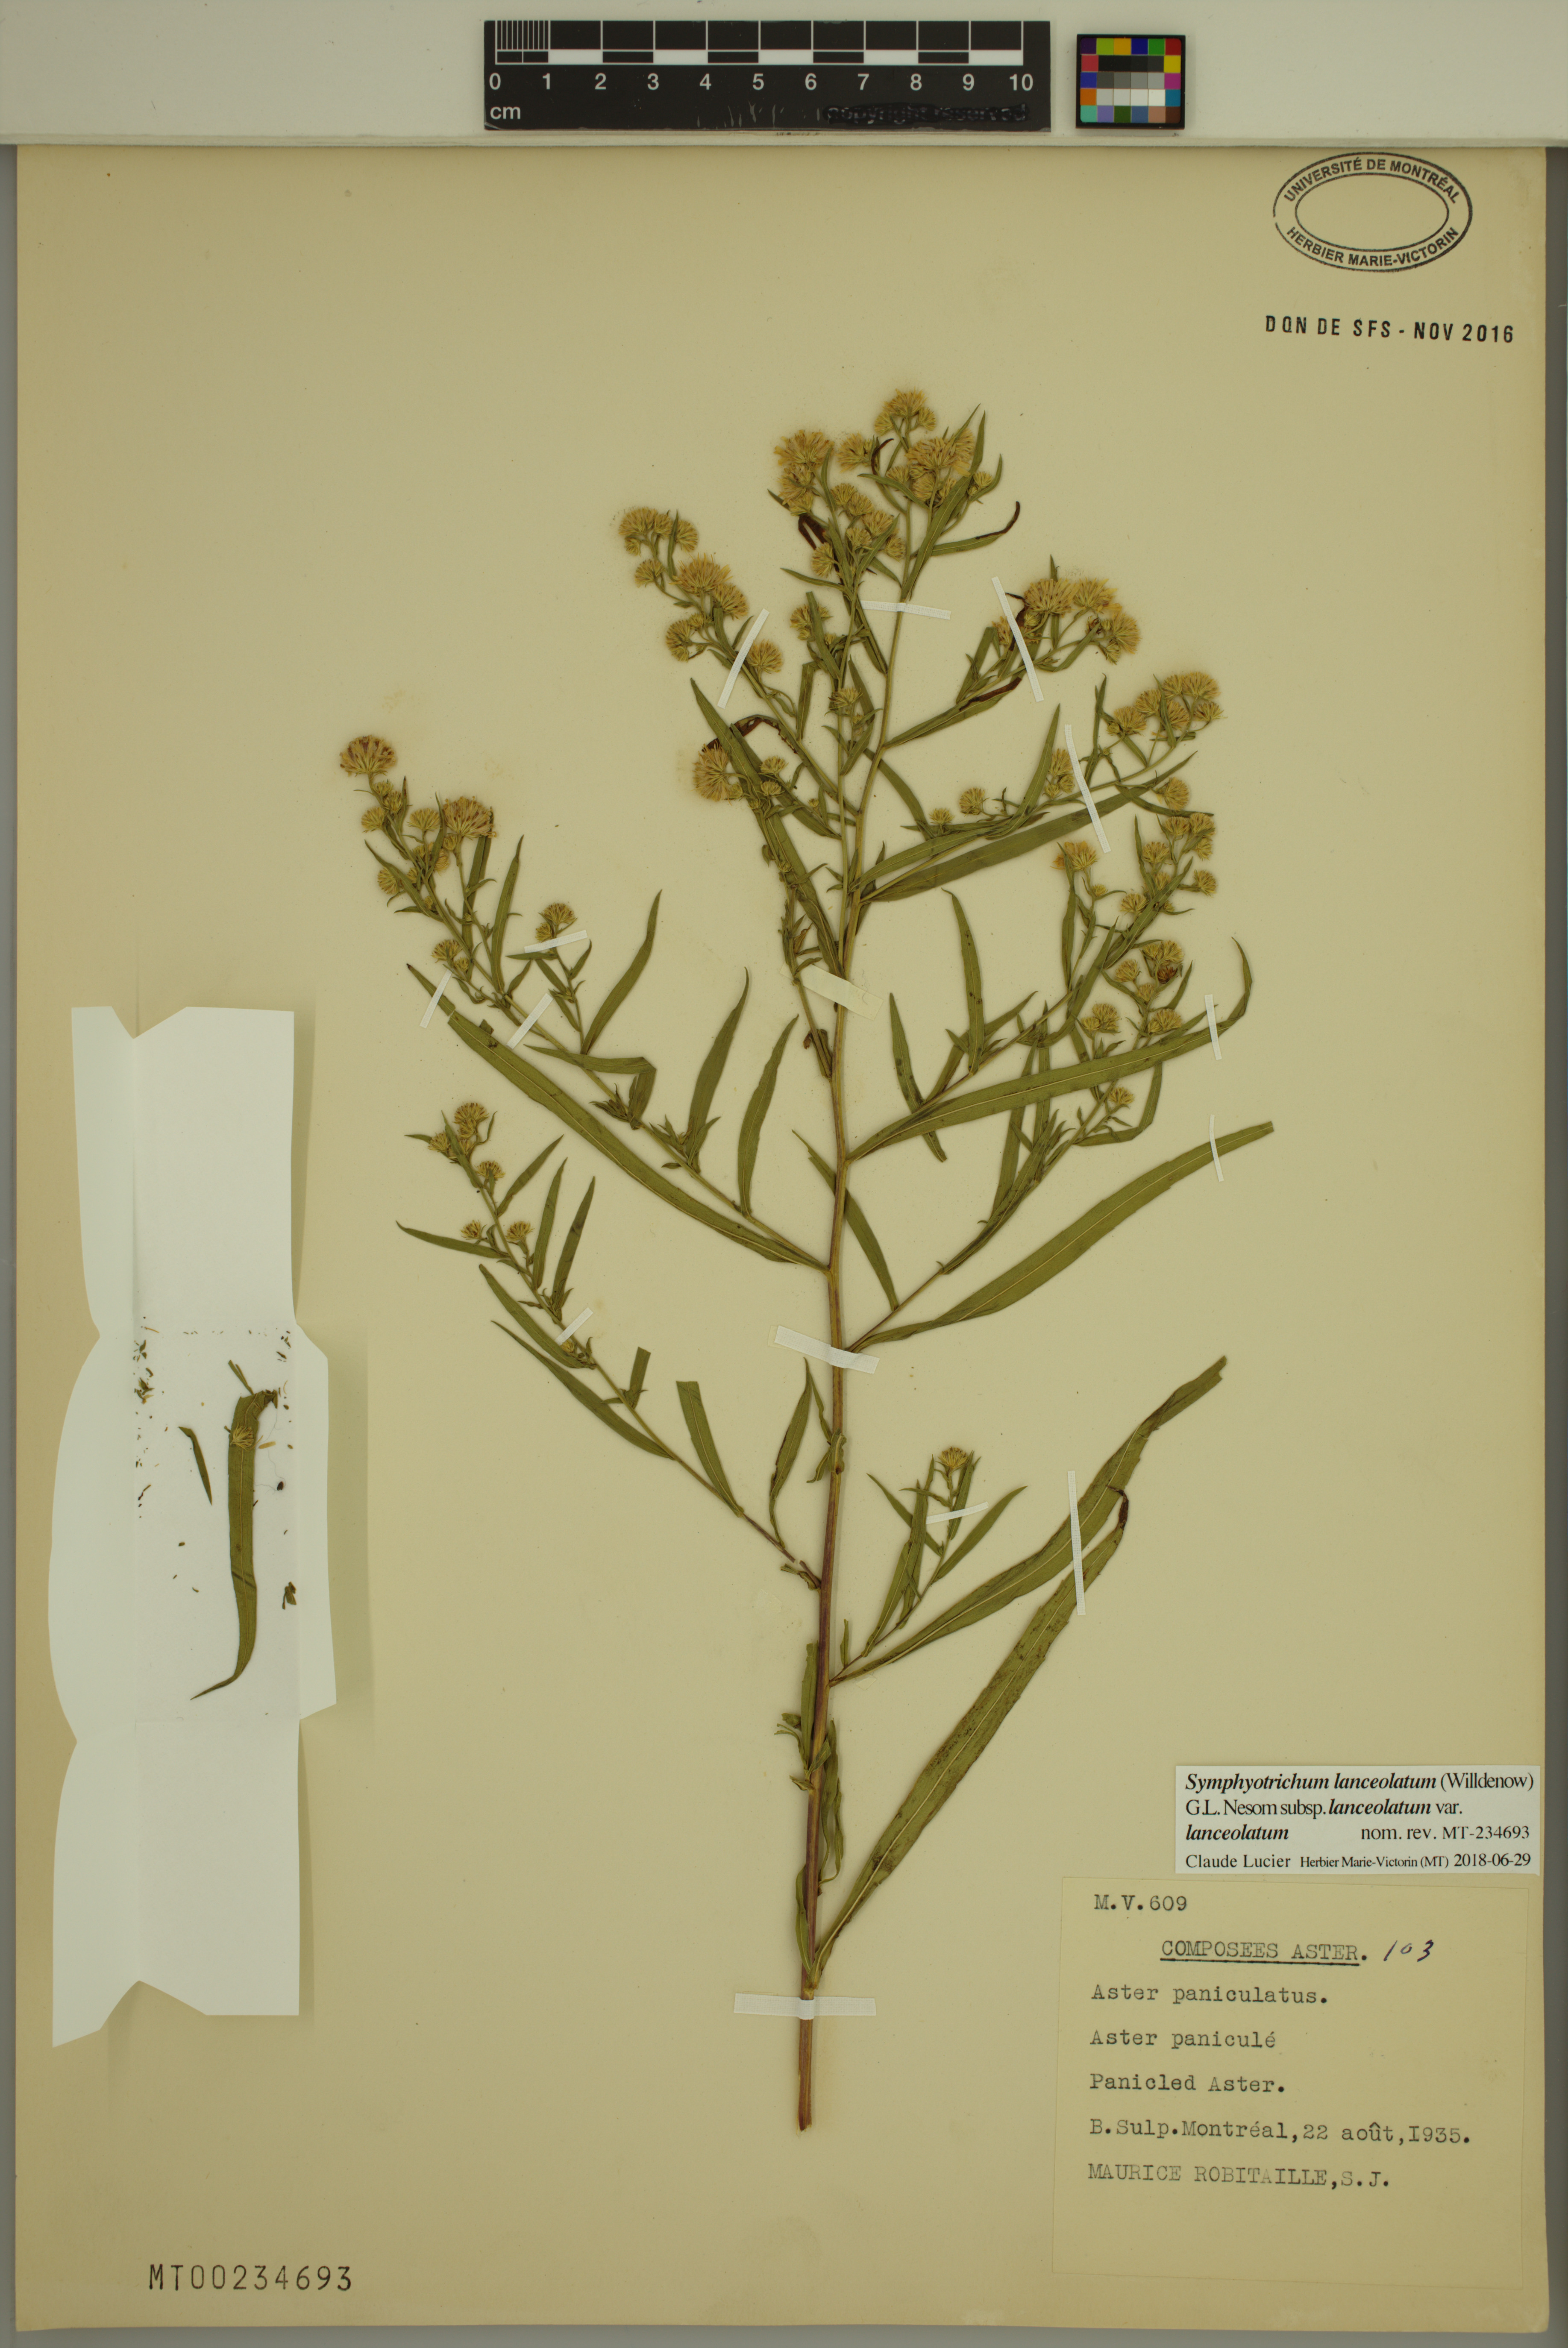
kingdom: Plantae
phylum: Tracheophyta
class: Magnoliopsida
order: Asterales
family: Asteraceae
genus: Symphyotrichum
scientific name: Symphyotrichum lanceolatum
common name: Panicled aster
